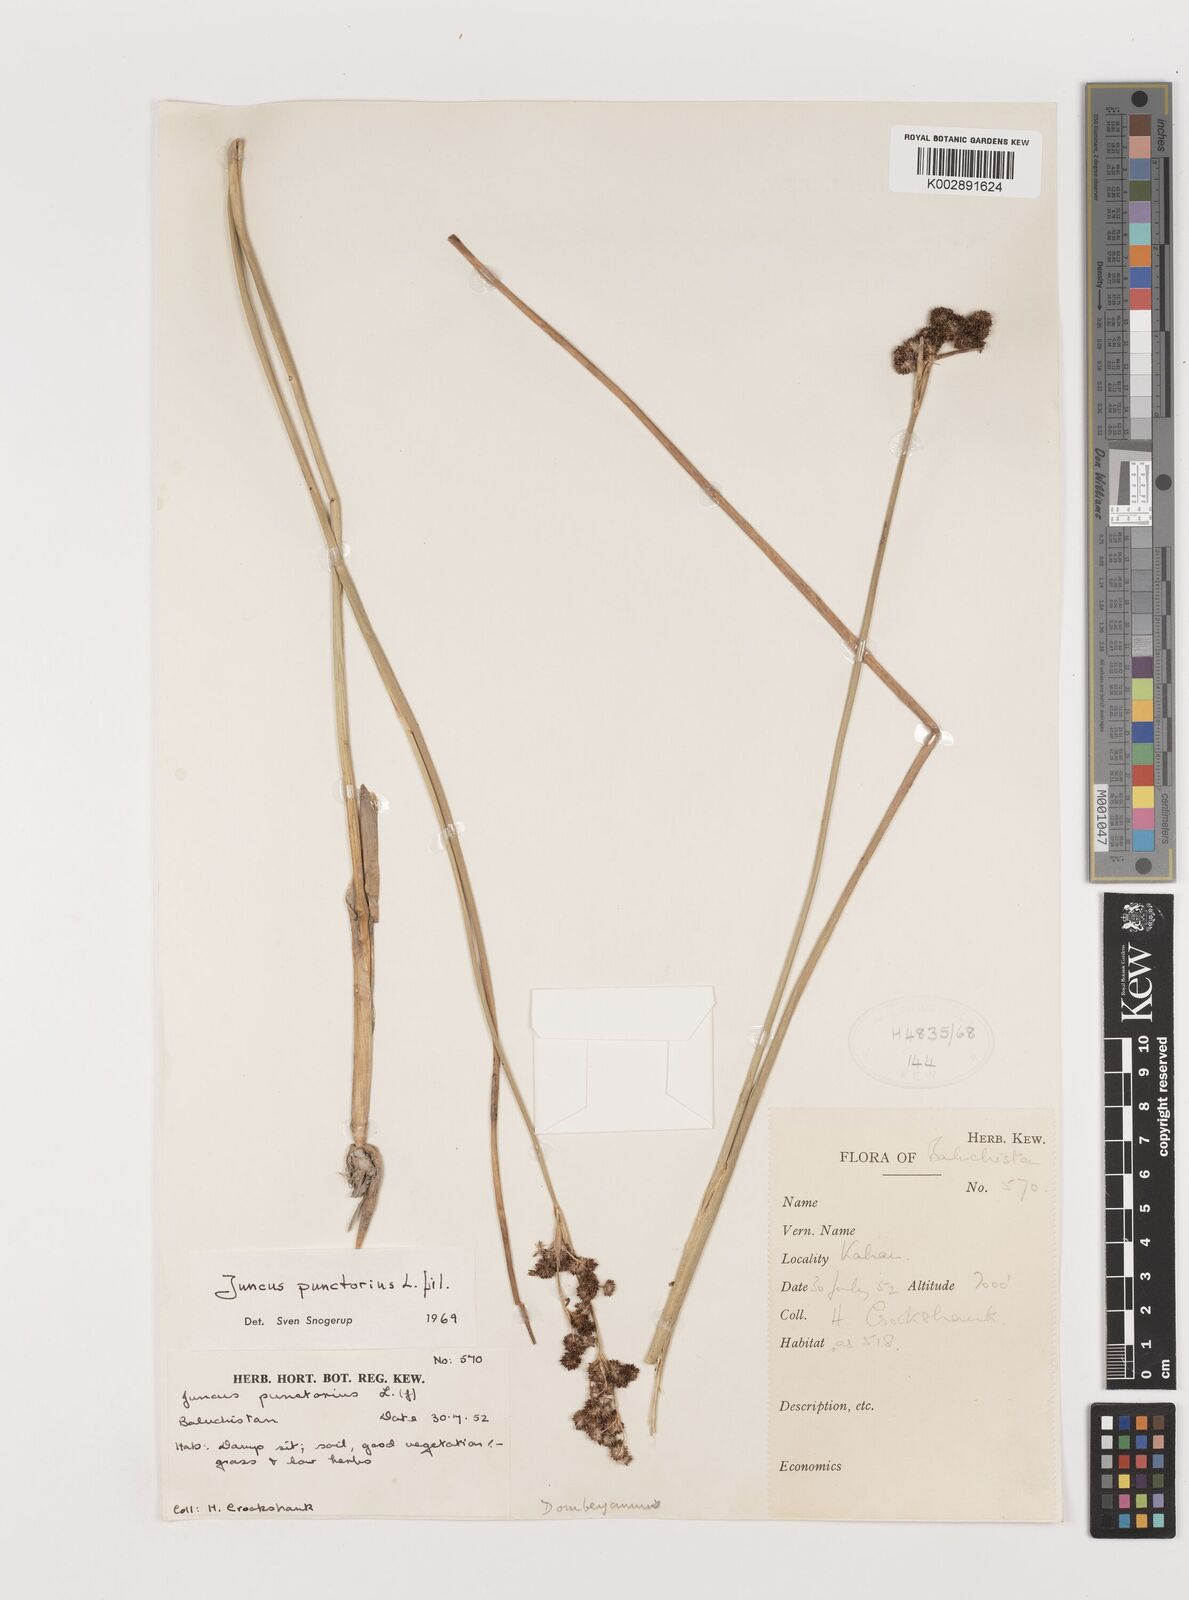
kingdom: Plantae
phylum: Tracheophyta
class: Liliopsida
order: Poales
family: Juncaceae
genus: Juncus
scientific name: Juncus punctorius
